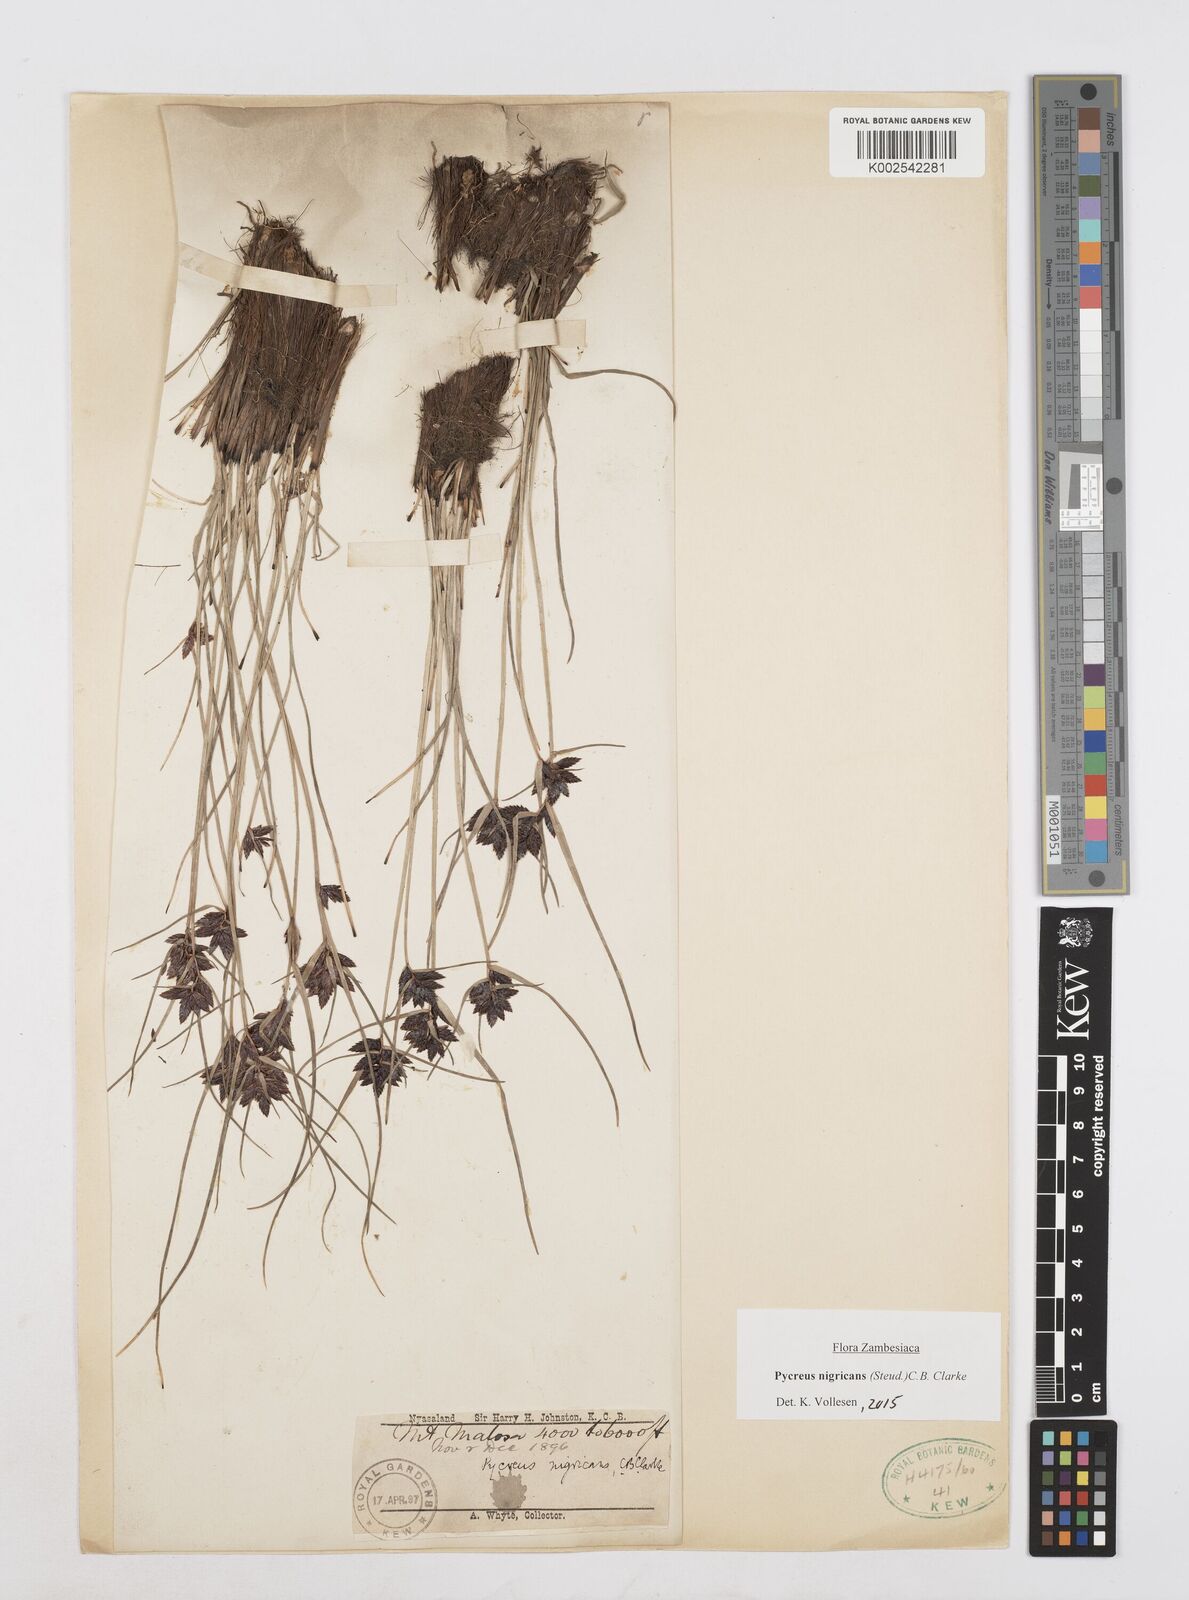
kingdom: Plantae
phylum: Tracheophyta
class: Liliopsida
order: Poales
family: Cyperaceae
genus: Cyperus
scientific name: Cyperus nigricans
